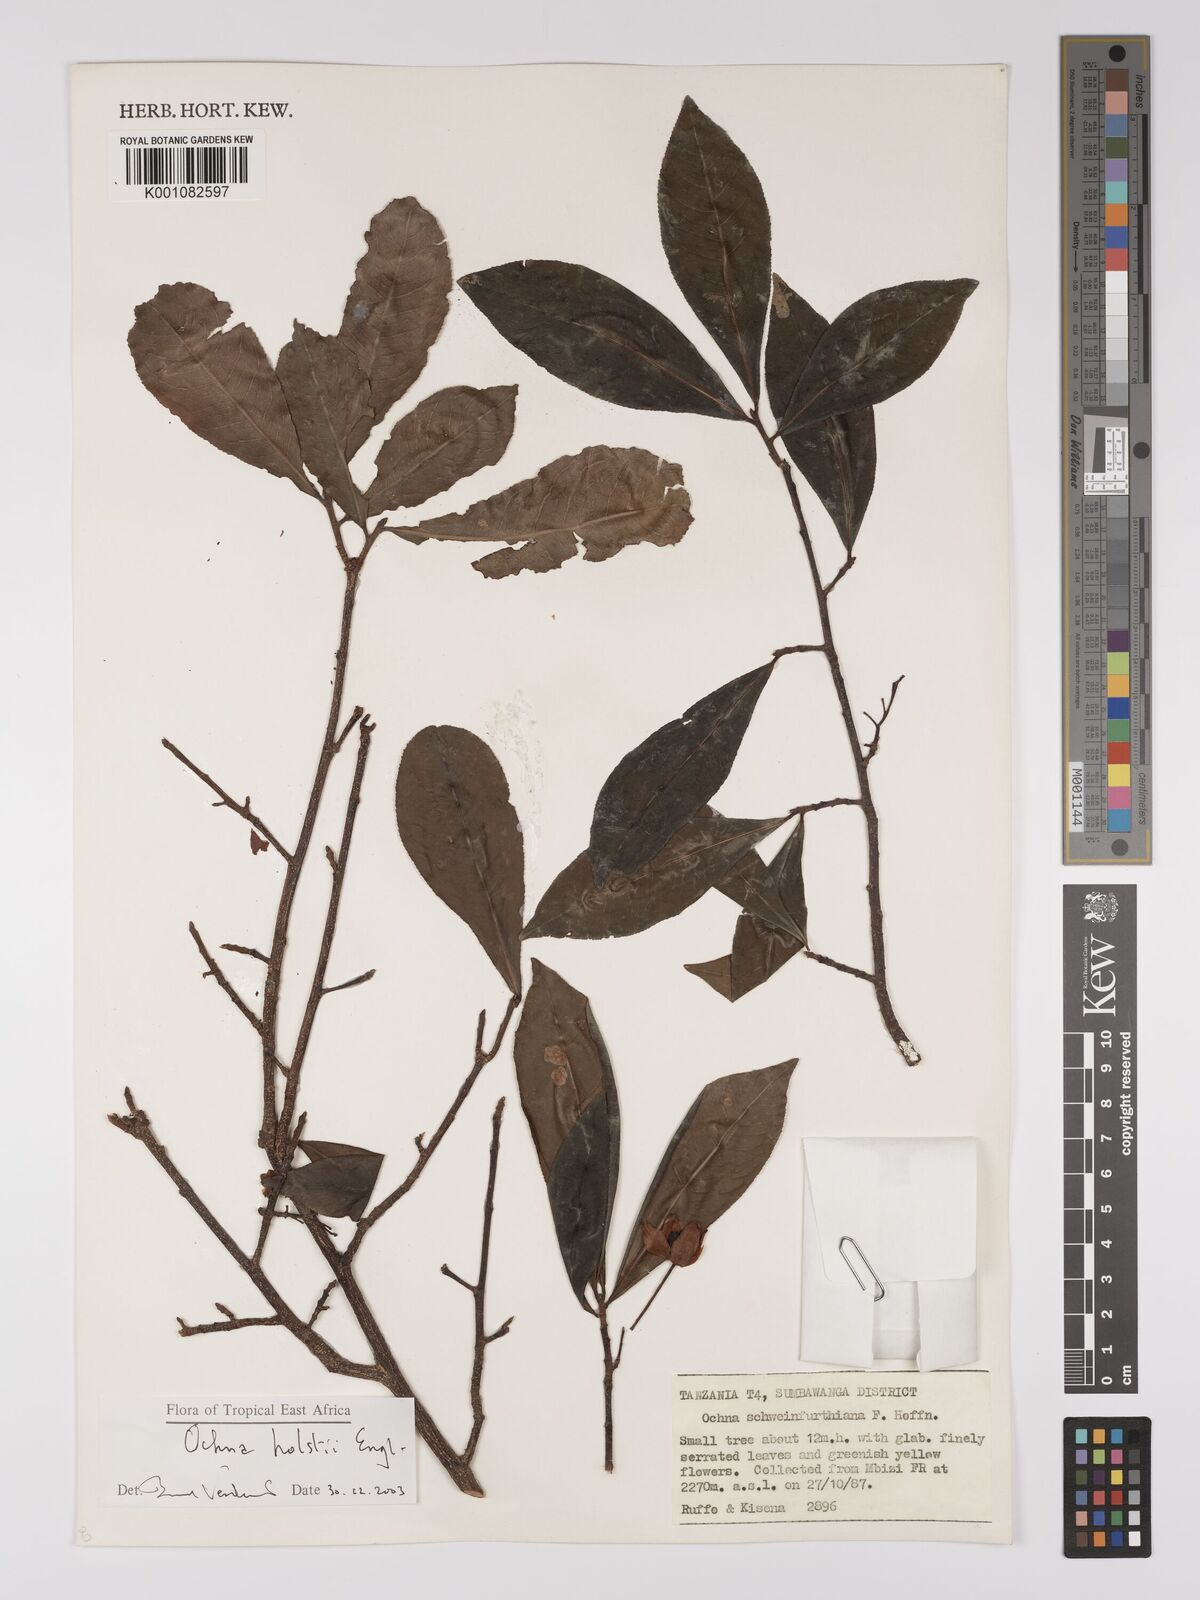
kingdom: Plantae
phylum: Tracheophyta
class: Magnoliopsida
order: Malpighiales
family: Ochnaceae
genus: Ochna
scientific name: Ochna holstii
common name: Red ironwood
